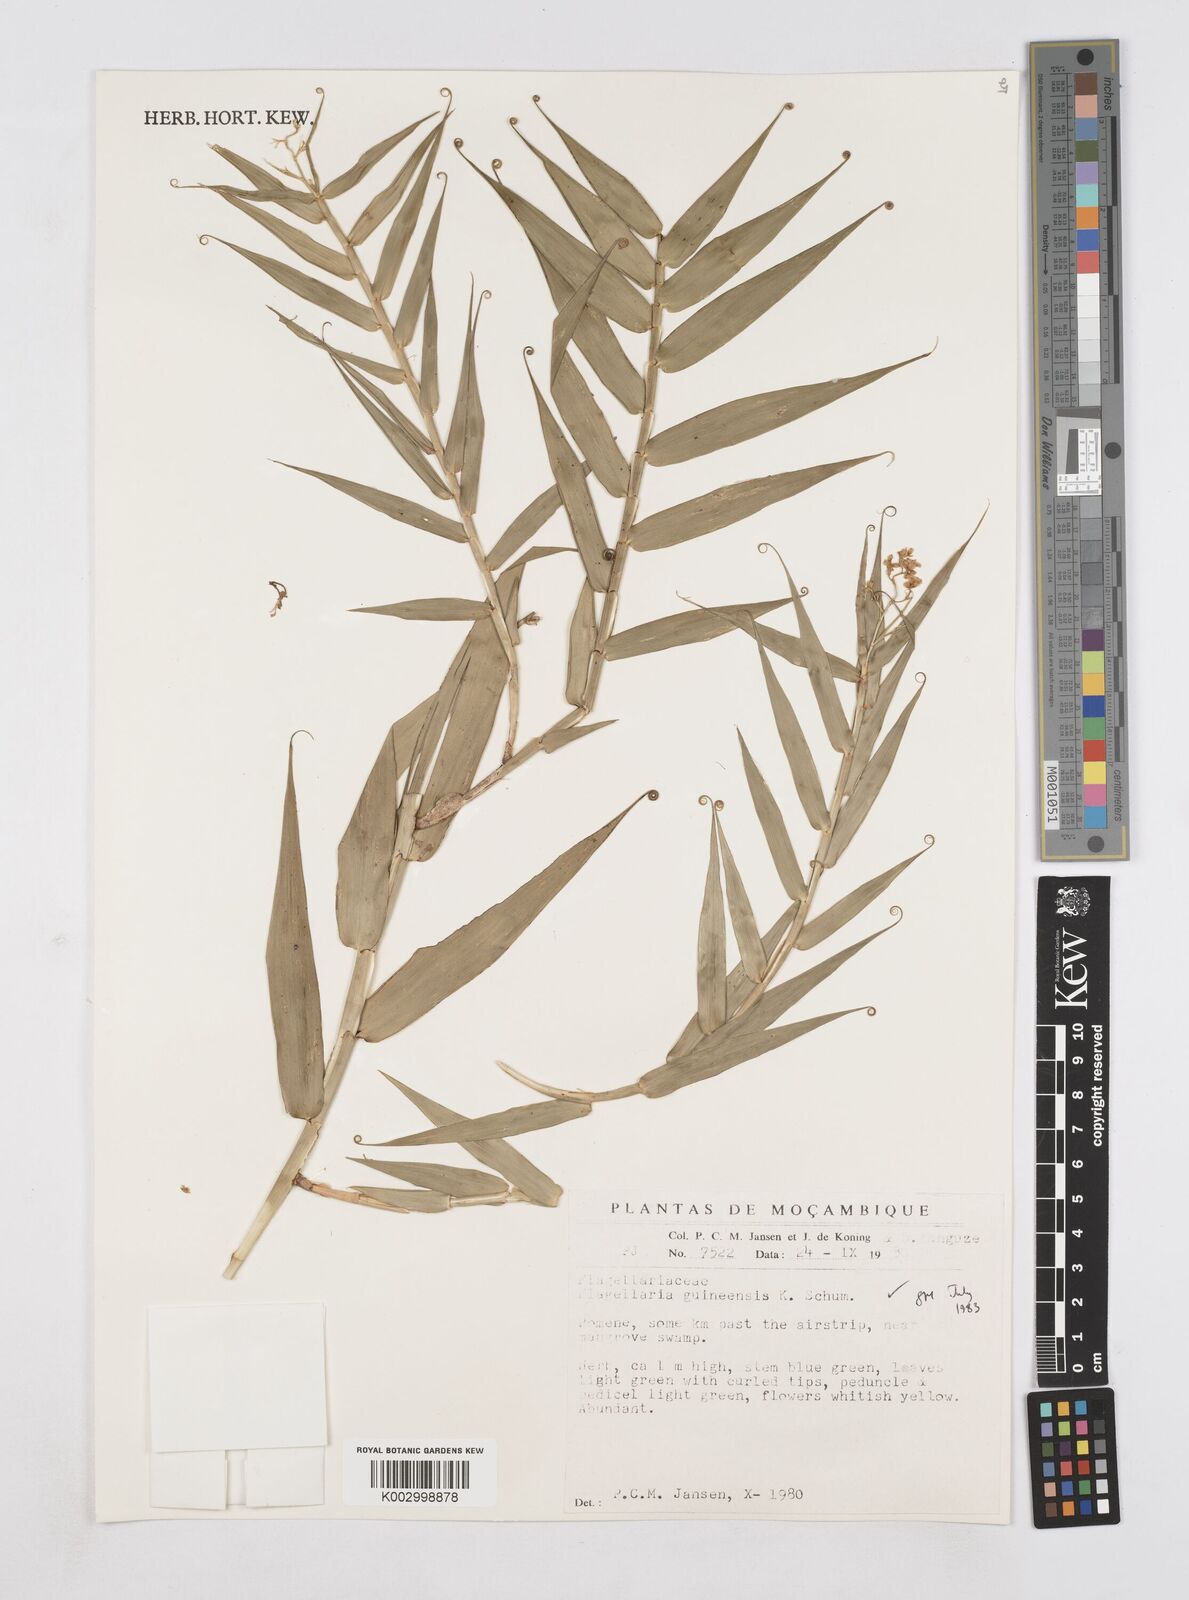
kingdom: Plantae
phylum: Tracheophyta
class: Liliopsida
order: Poales
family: Flagellariaceae
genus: Flagellaria
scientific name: Flagellaria guineensis
